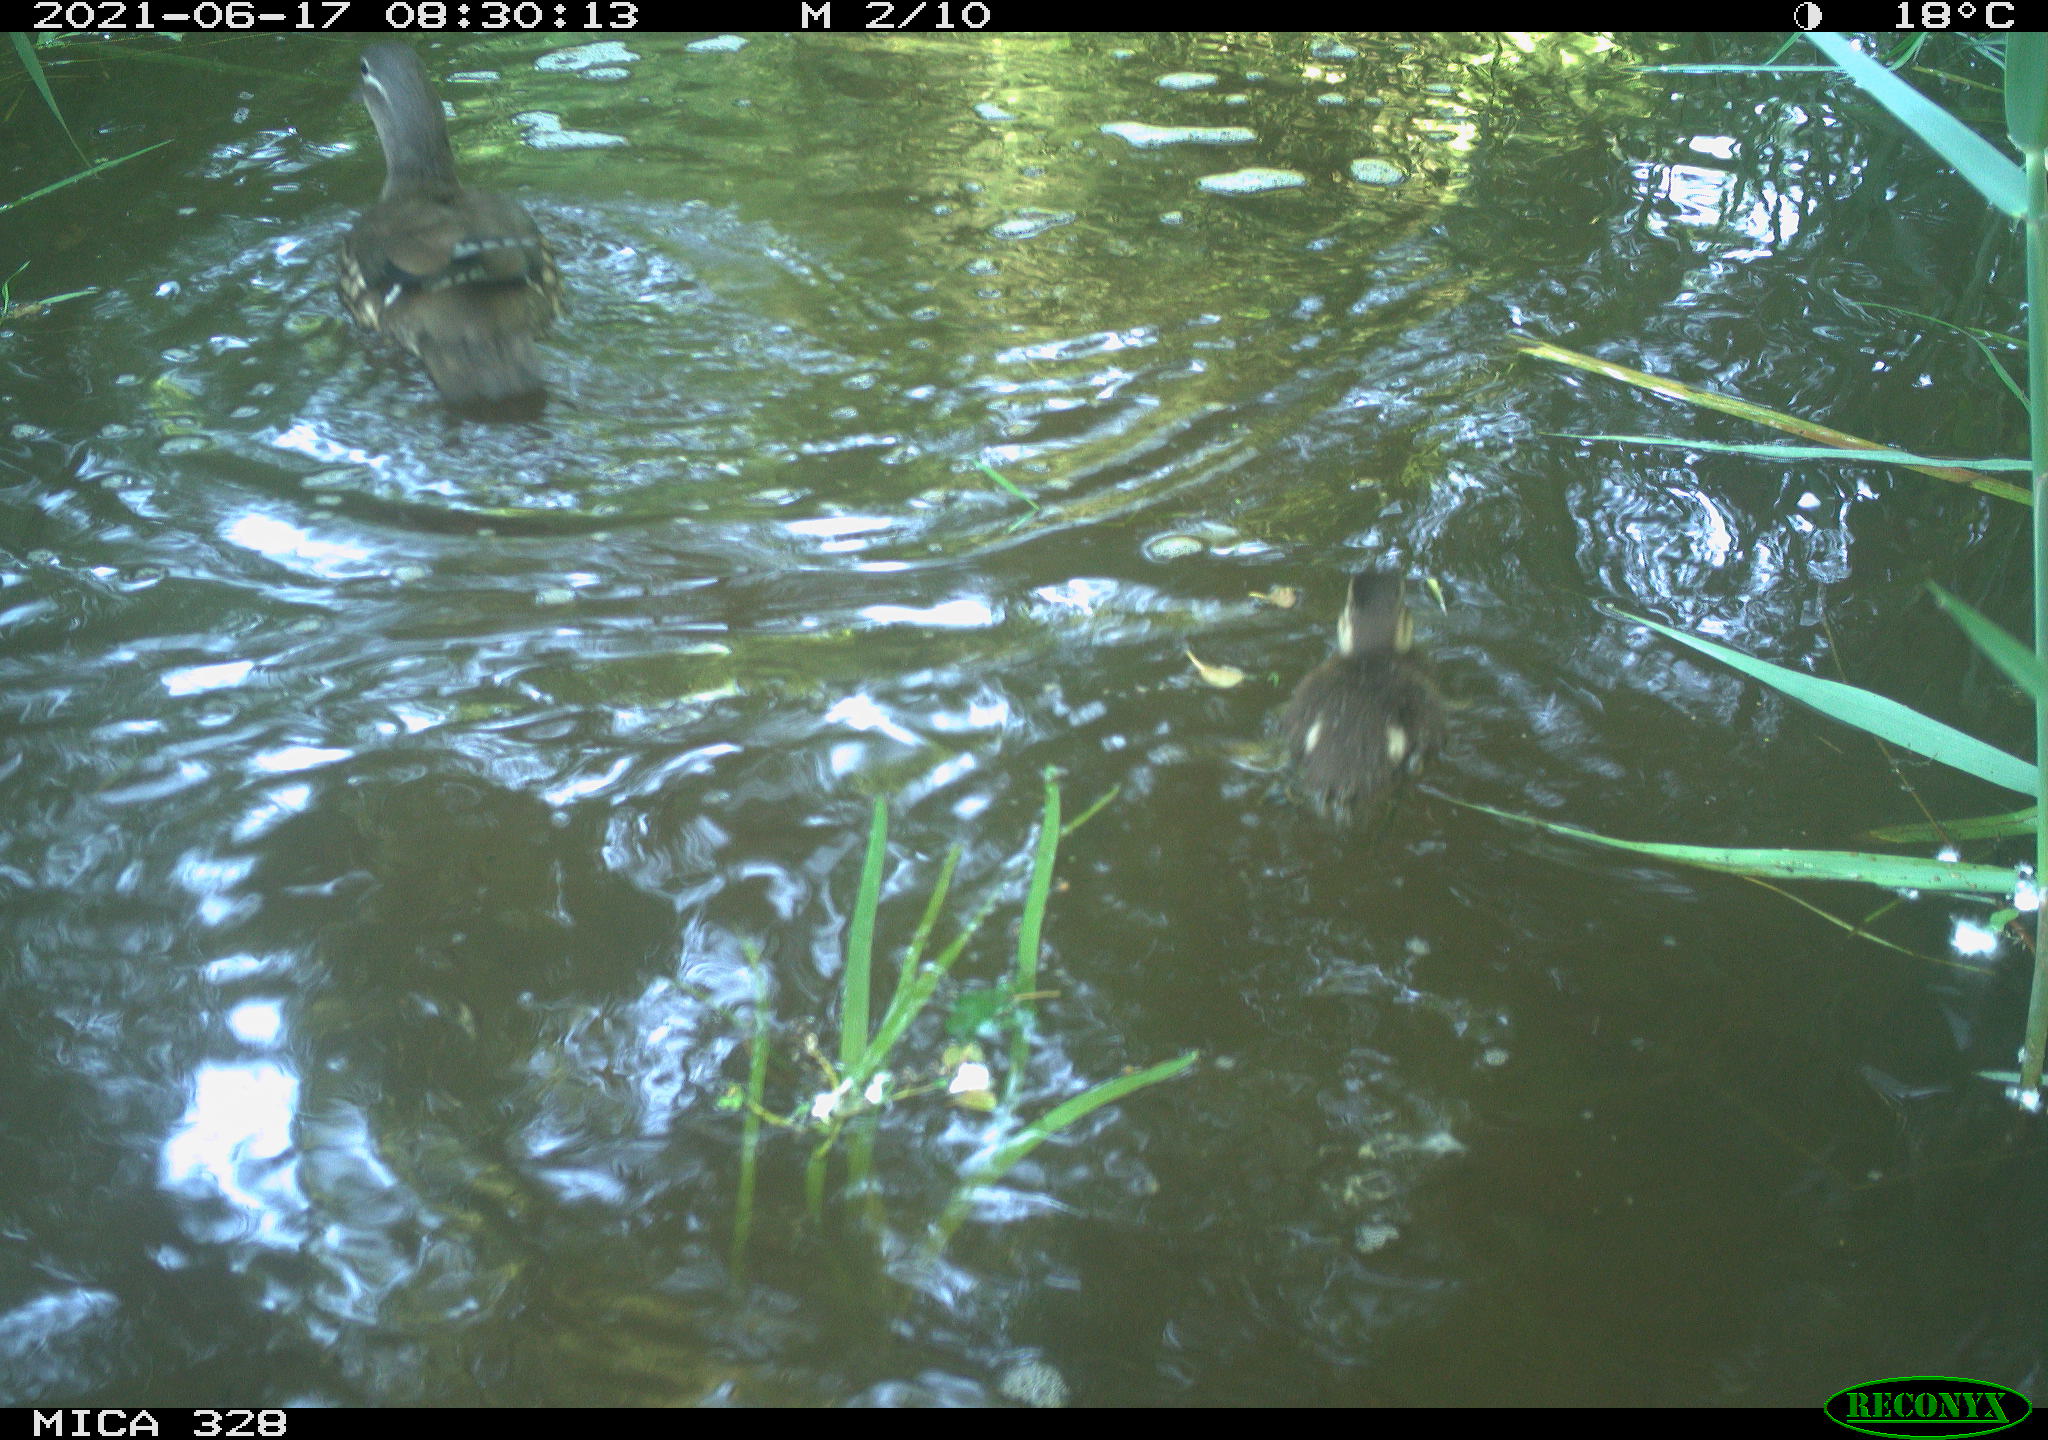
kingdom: Animalia
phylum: Chordata
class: Aves
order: Anseriformes
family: Anatidae
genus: Aix
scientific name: Aix galericulata
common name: Mandarin duck
